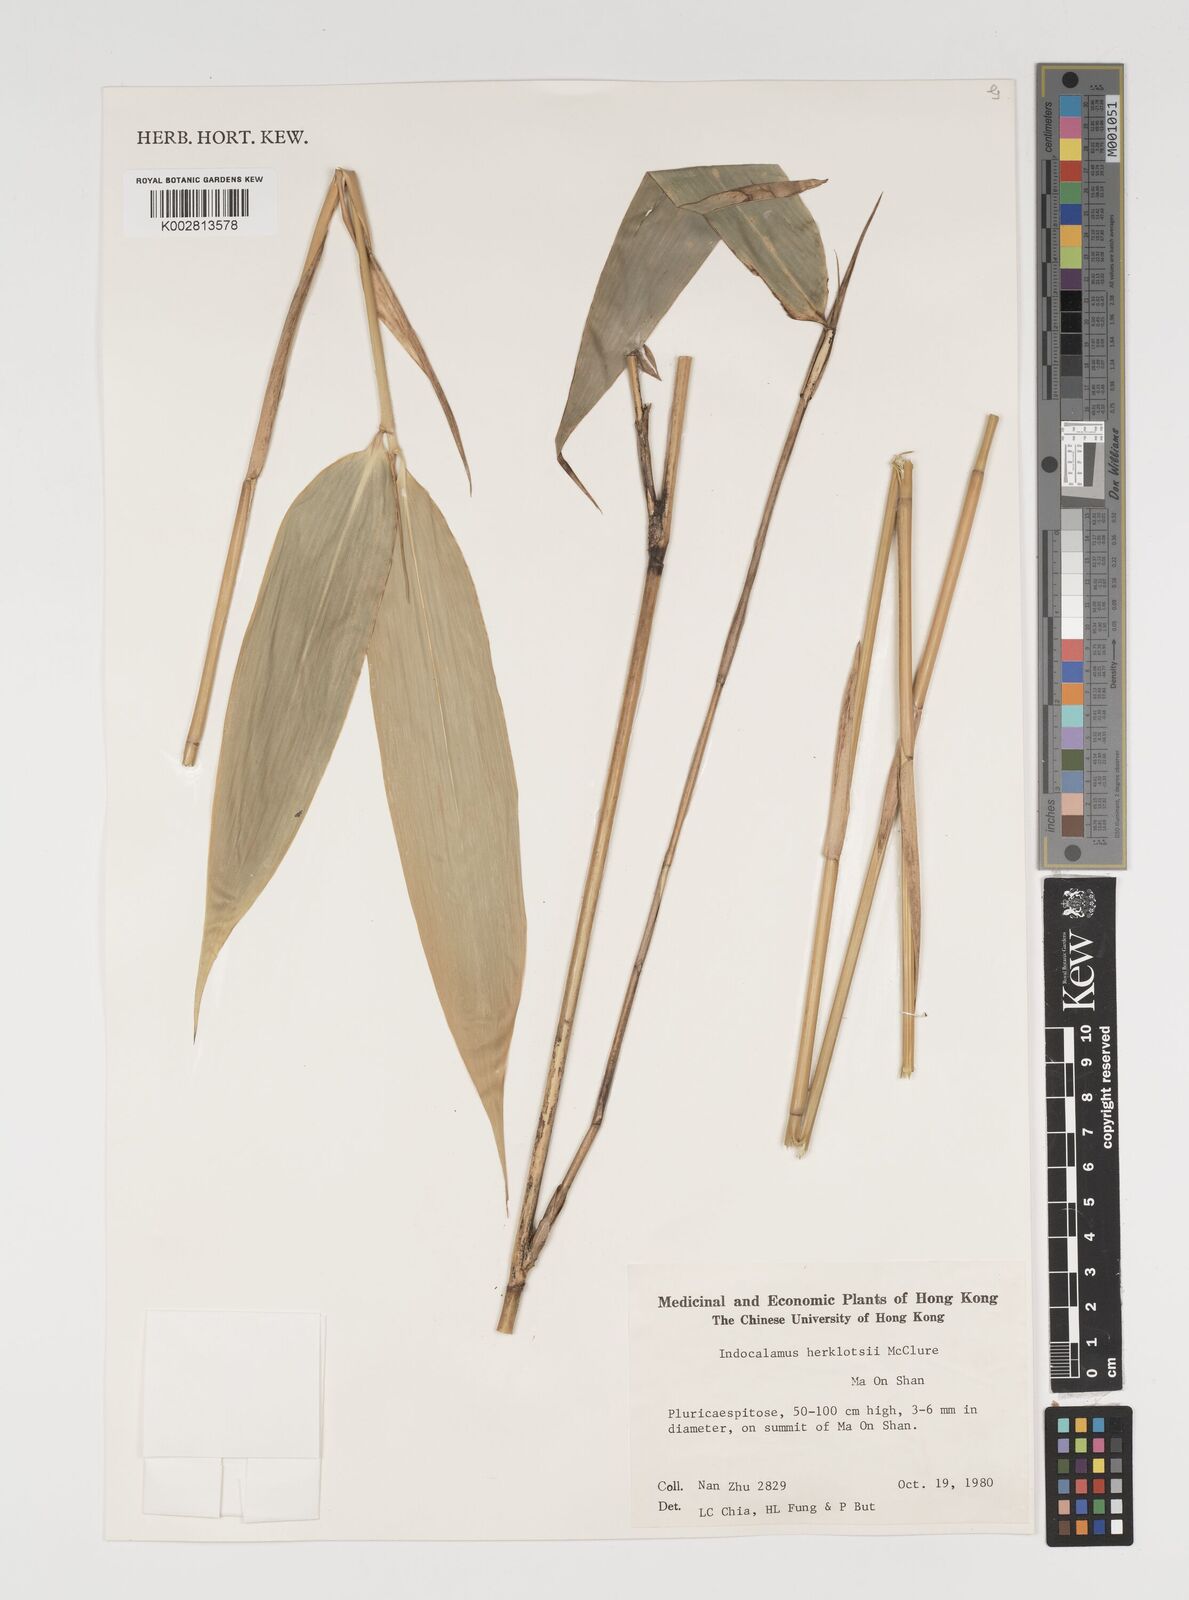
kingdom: Plantae
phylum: Tracheophyta
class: Liliopsida
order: Poales
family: Poaceae
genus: Indocalamus
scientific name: Indocalamus herklotsii
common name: Herklot's cane
